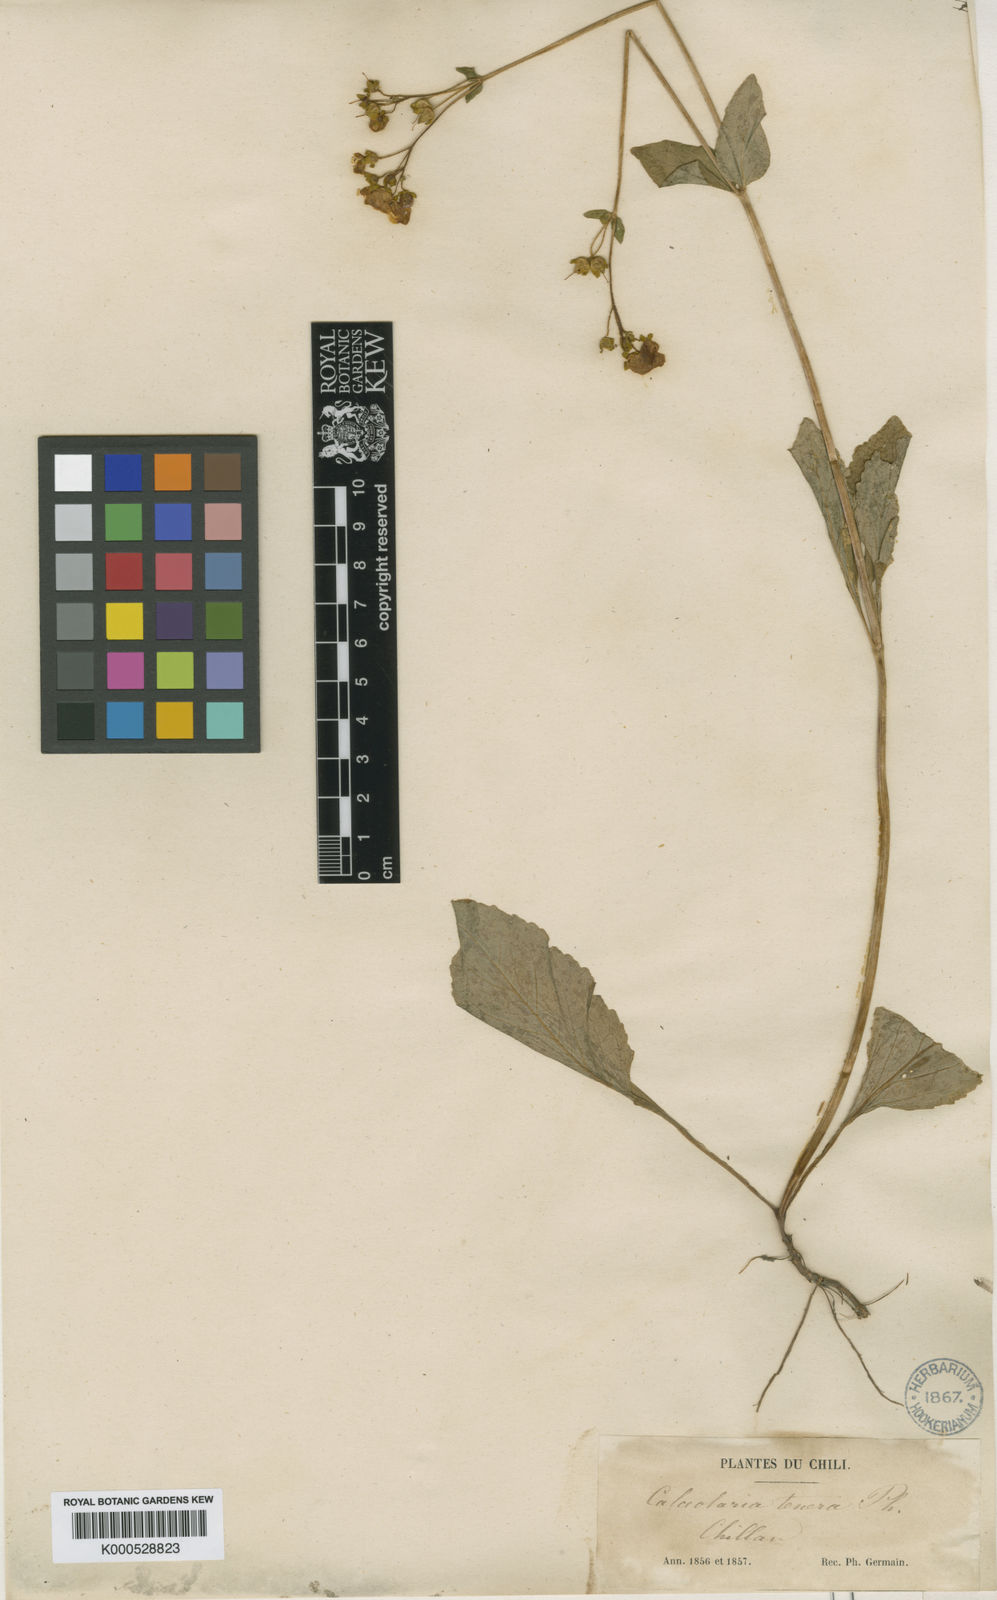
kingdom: Plantae
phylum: Tracheophyta
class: Magnoliopsida
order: Lamiales
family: Calceolariaceae
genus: Calceolaria
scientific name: Calceolaria valdiviana
